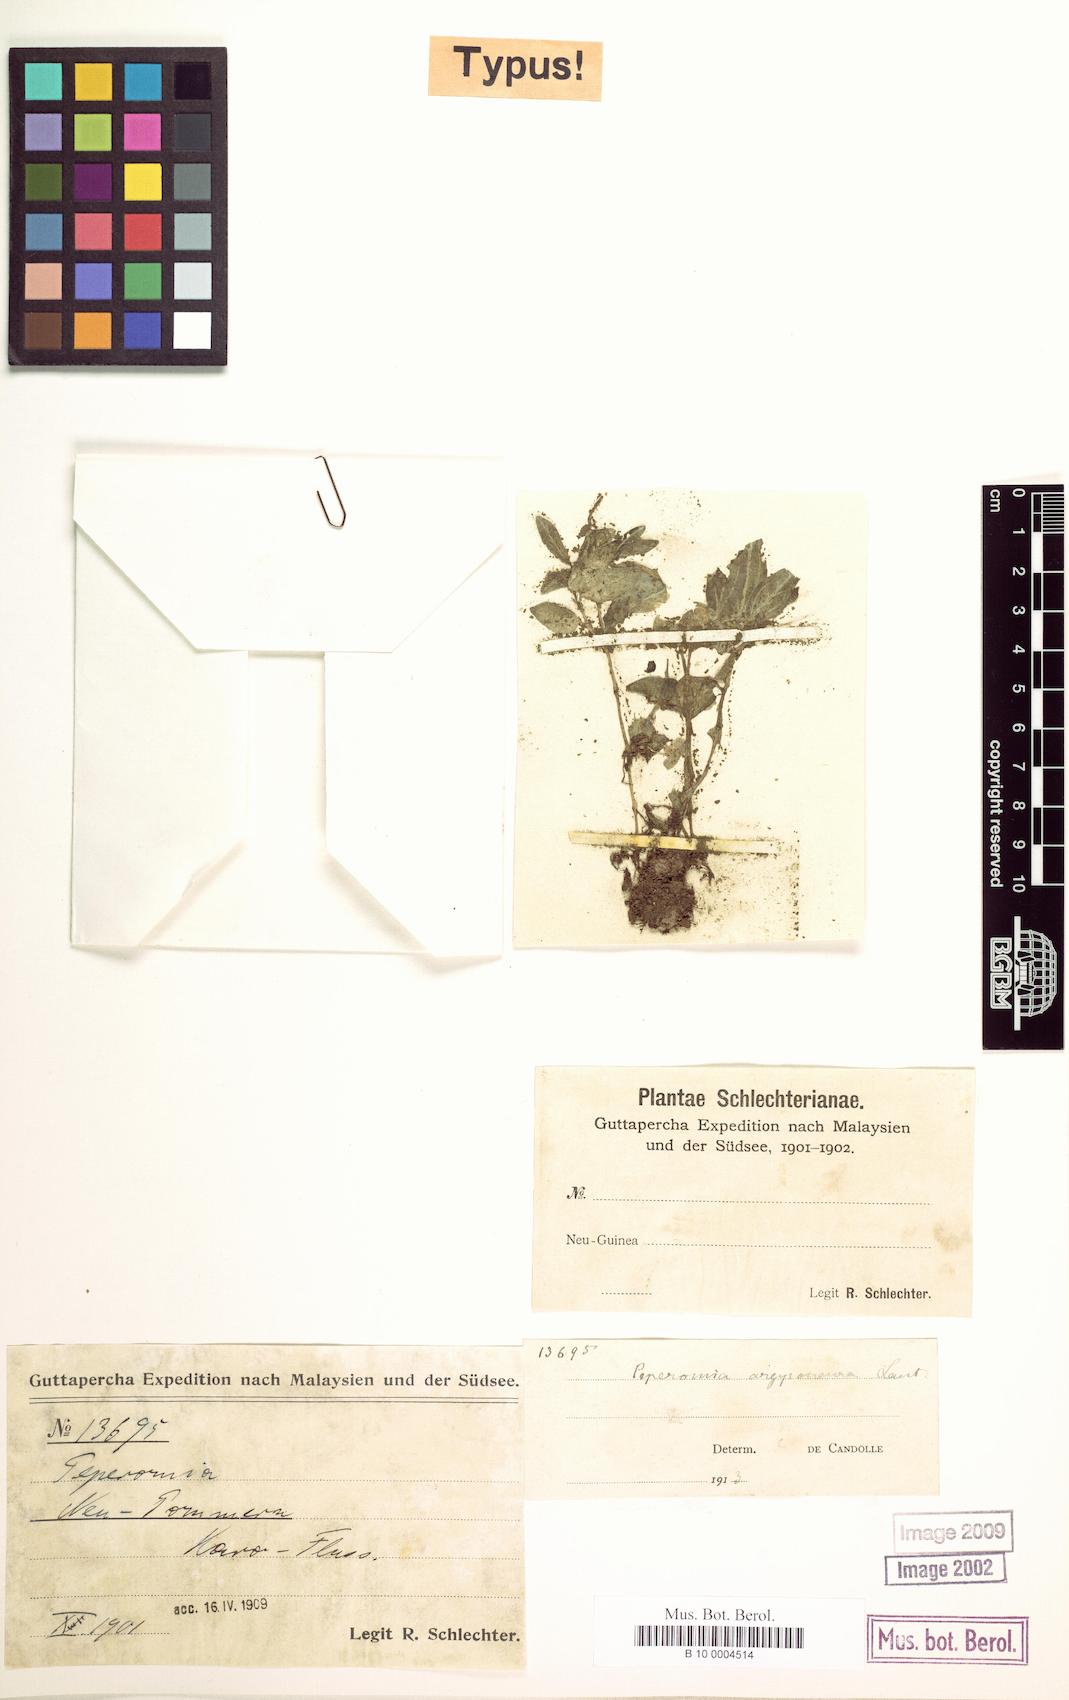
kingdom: Plantae
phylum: Tracheophyta
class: Magnoliopsida
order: Piperales
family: Piperaceae
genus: Peperomia
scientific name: Peperomia argyroneura
